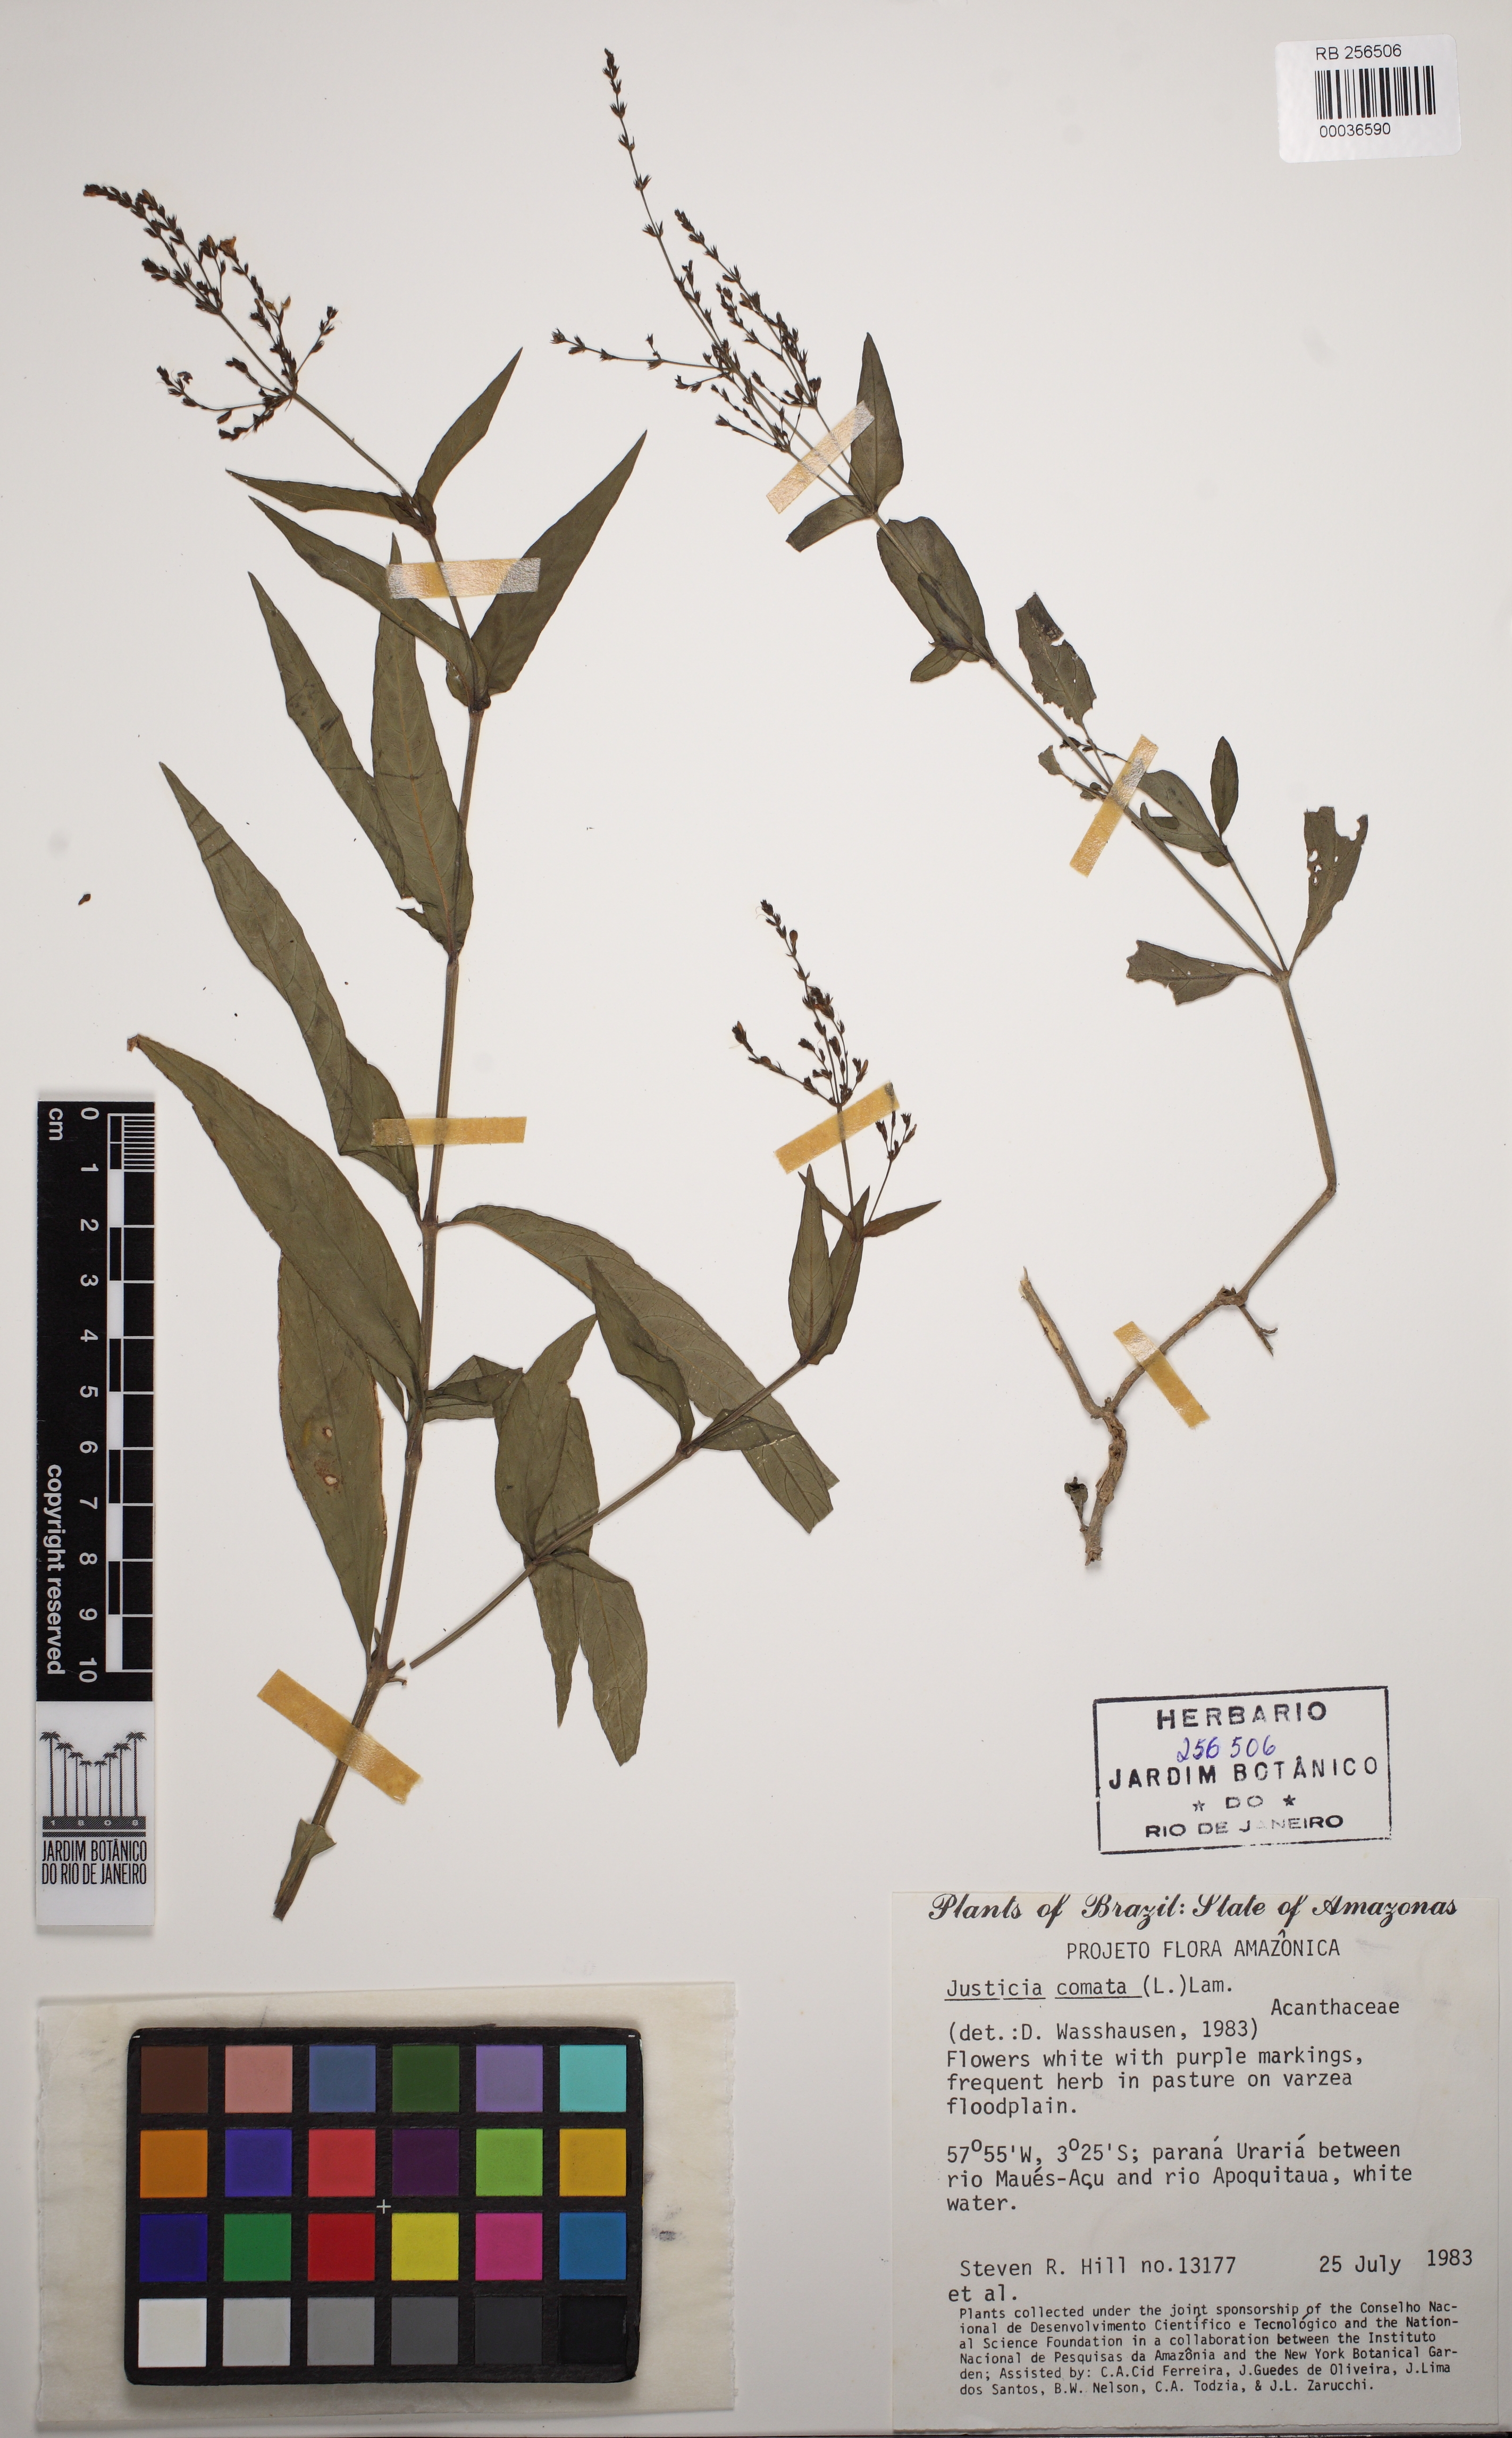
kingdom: Plantae
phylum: Tracheophyta
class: Magnoliopsida
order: Lamiales
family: Acanthaceae
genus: Dianthera
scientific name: Dianthera comata
